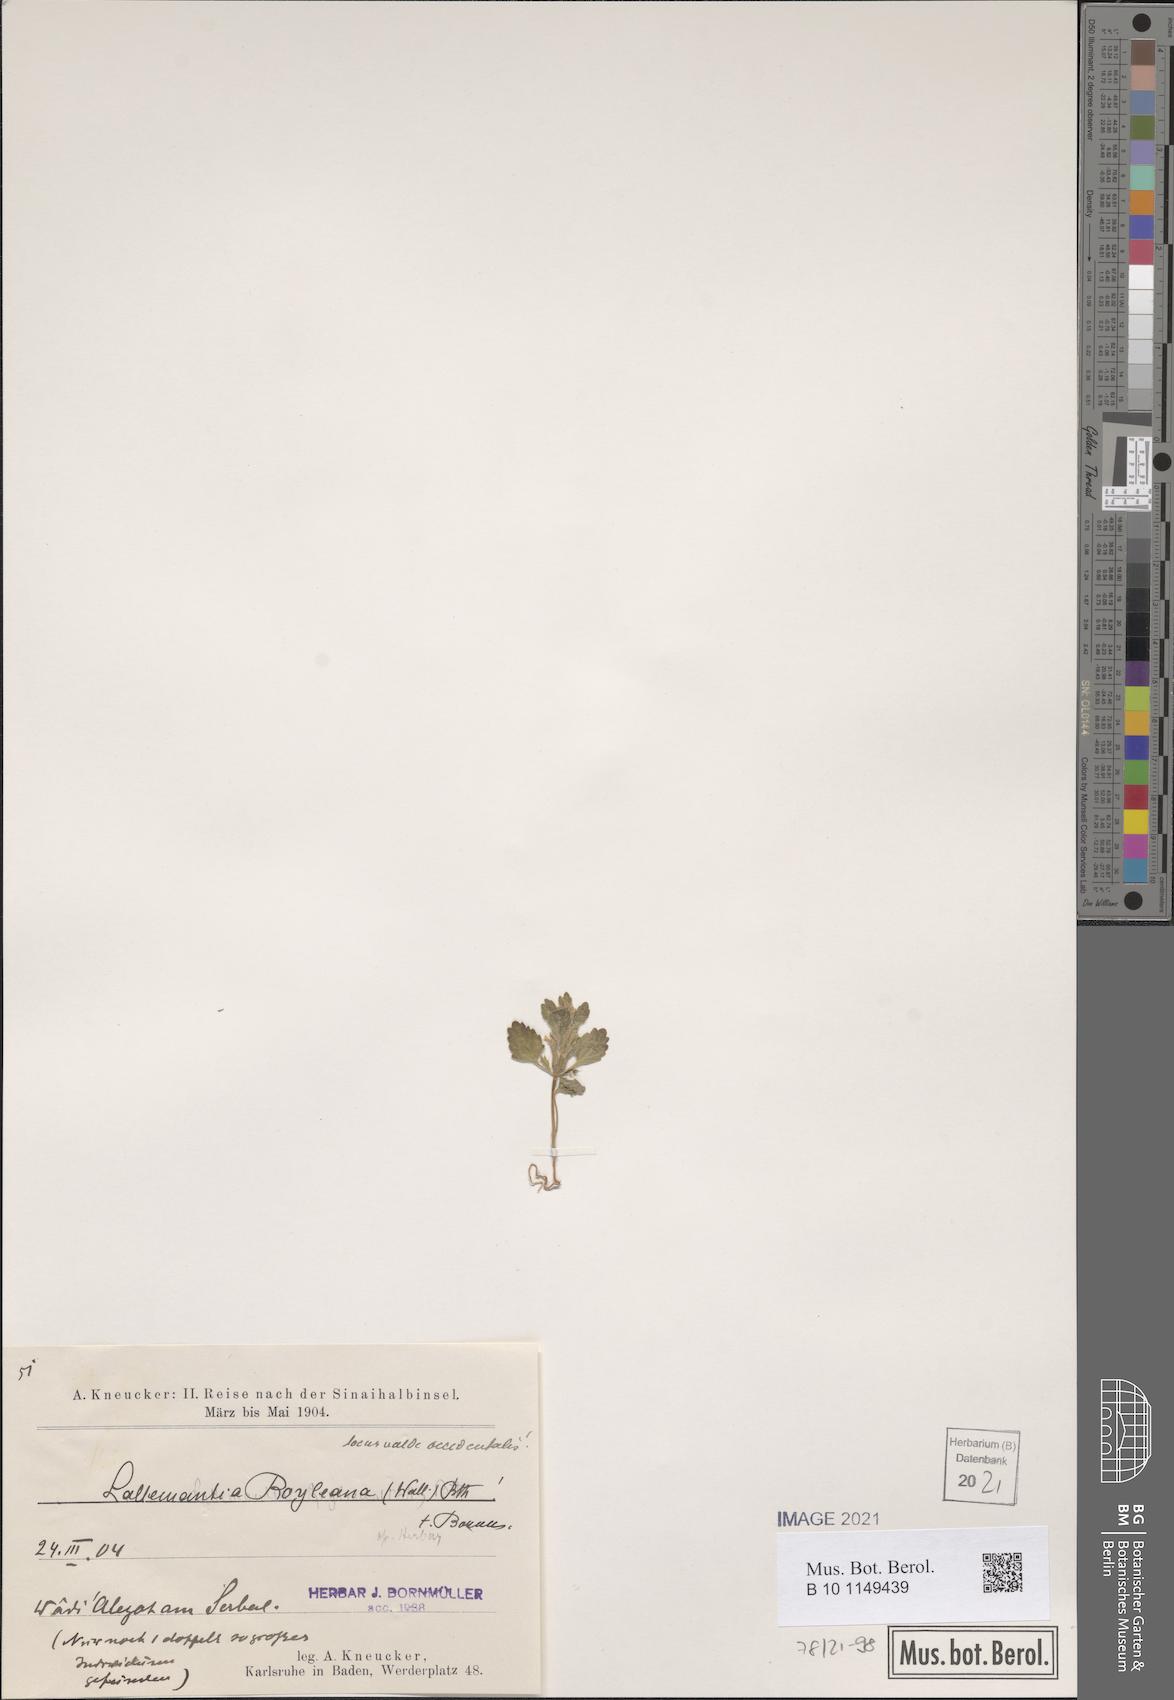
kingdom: Plantae
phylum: Tracheophyta
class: Magnoliopsida
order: Lamiales
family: Lamiaceae
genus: Lallemantia
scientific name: Lallemantia royleana
